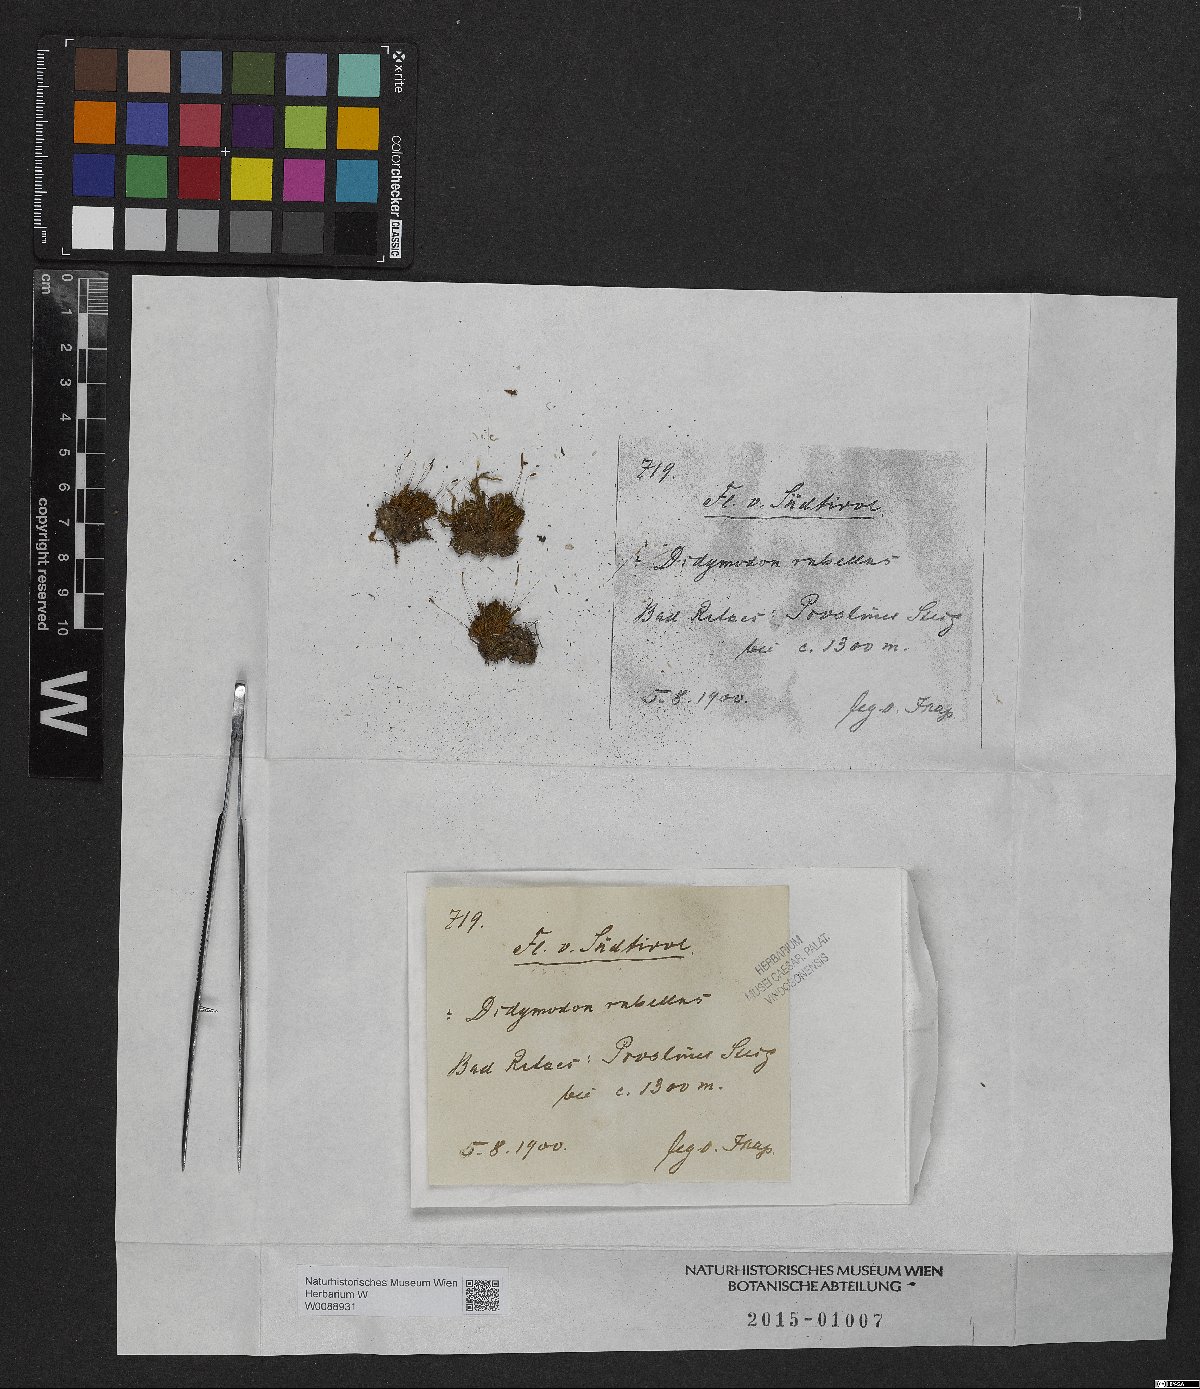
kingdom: Plantae
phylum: Bryophyta
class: Bryopsida
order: Pottiales
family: Pottiaceae
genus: Bryoerythrophyllum
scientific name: Bryoerythrophyllum recurvirostrum
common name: Red beard moss
